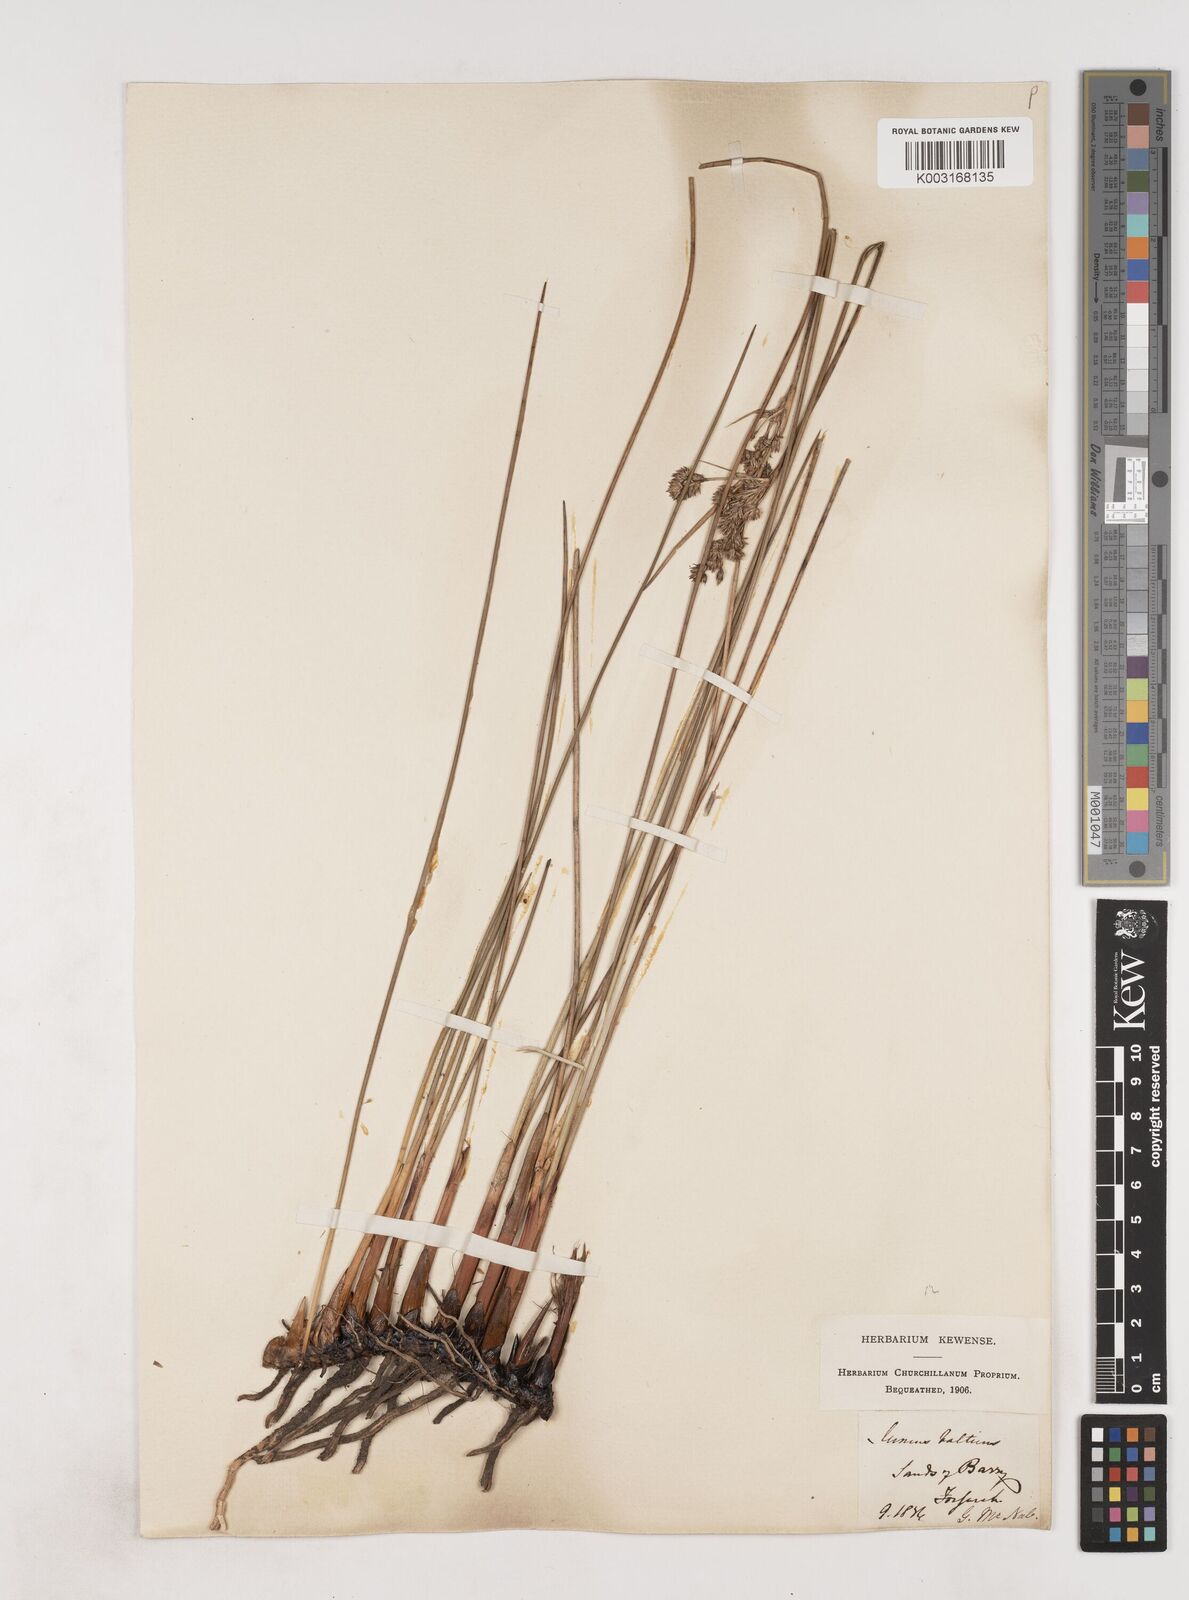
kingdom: Plantae
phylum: Tracheophyta
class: Liliopsida
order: Poales
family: Juncaceae
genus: Juncus
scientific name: Juncus balticus
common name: Baltic rush
